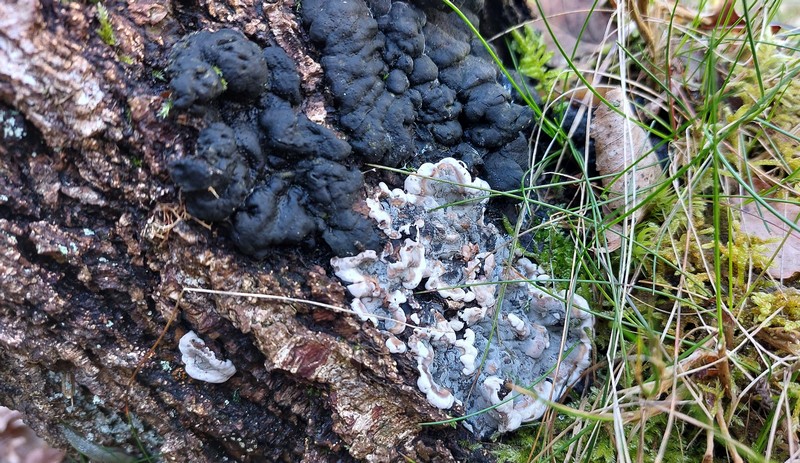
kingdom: Fungi
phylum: Ascomycota
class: Sordariomycetes
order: Xylariales
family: Xylariaceae
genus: Kretzschmaria
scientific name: Kretzschmaria deusta
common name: stor kulsvamp
